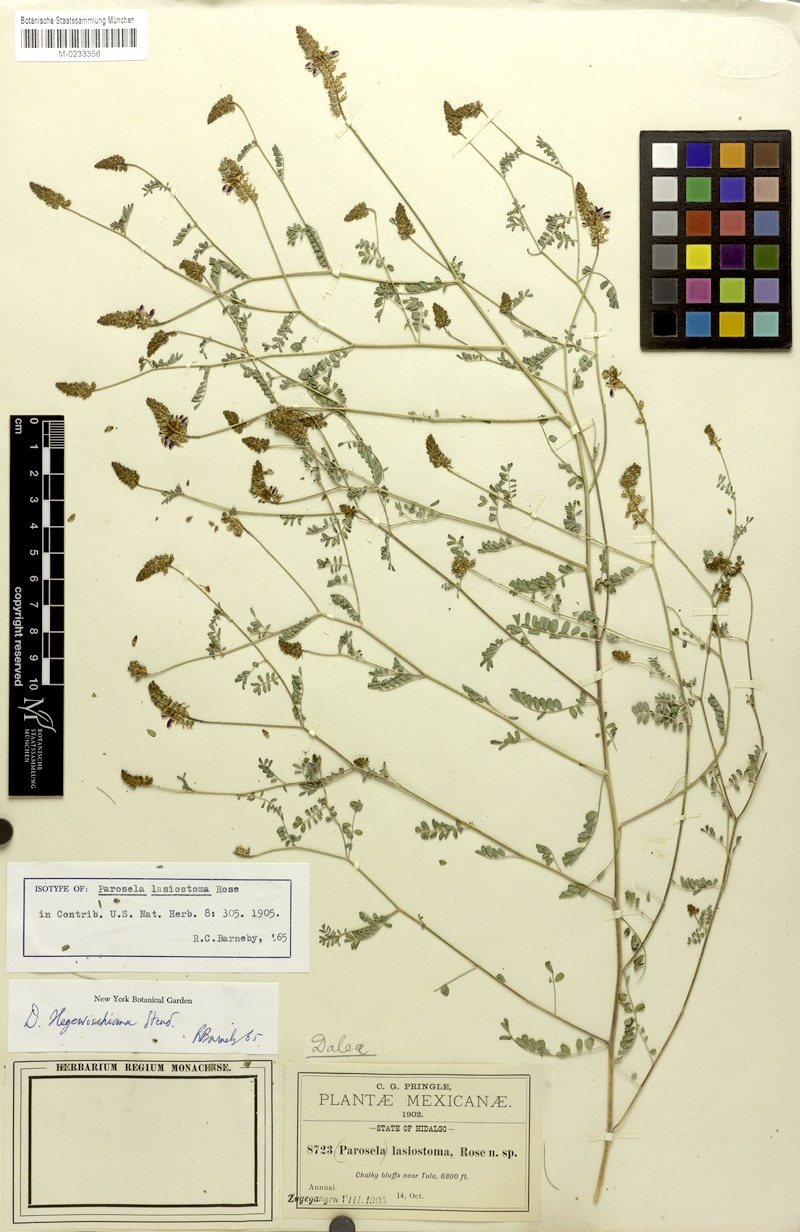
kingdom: Plantae
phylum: Tracheophyta
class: Magnoliopsida
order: Fabales
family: Fabaceae
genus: Dalea
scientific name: Dalea hegewischiana
